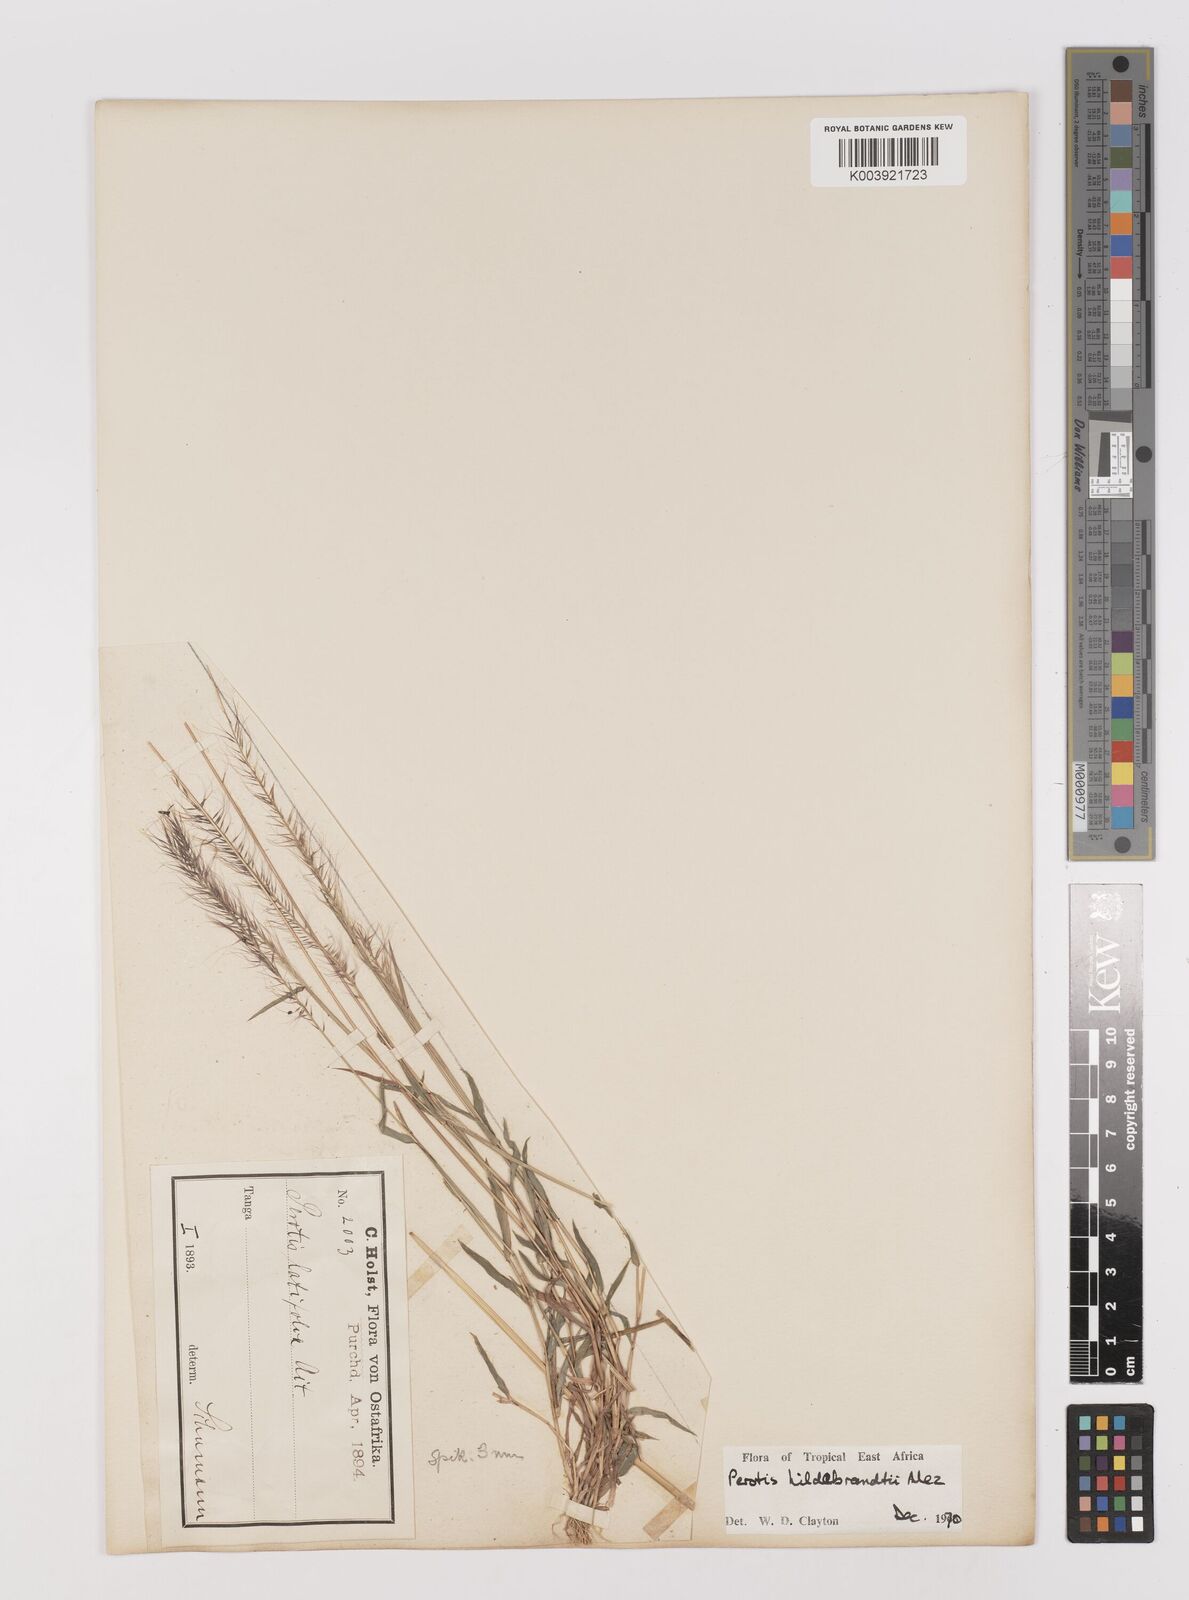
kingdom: Plantae
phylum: Tracheophyta
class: Liliopsida
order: Poales
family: Poaceae
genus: Perotis
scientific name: Perotis hildebrandtii
